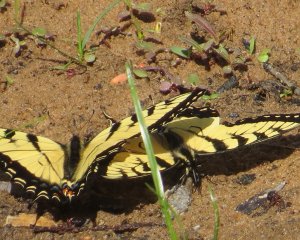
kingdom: Animalia
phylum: Arthropoda
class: Insecta
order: Lepidoptera
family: Papilionidae
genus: Pterourus
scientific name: Pterourus glaucus
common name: Eastern Tiger Swallowtail
